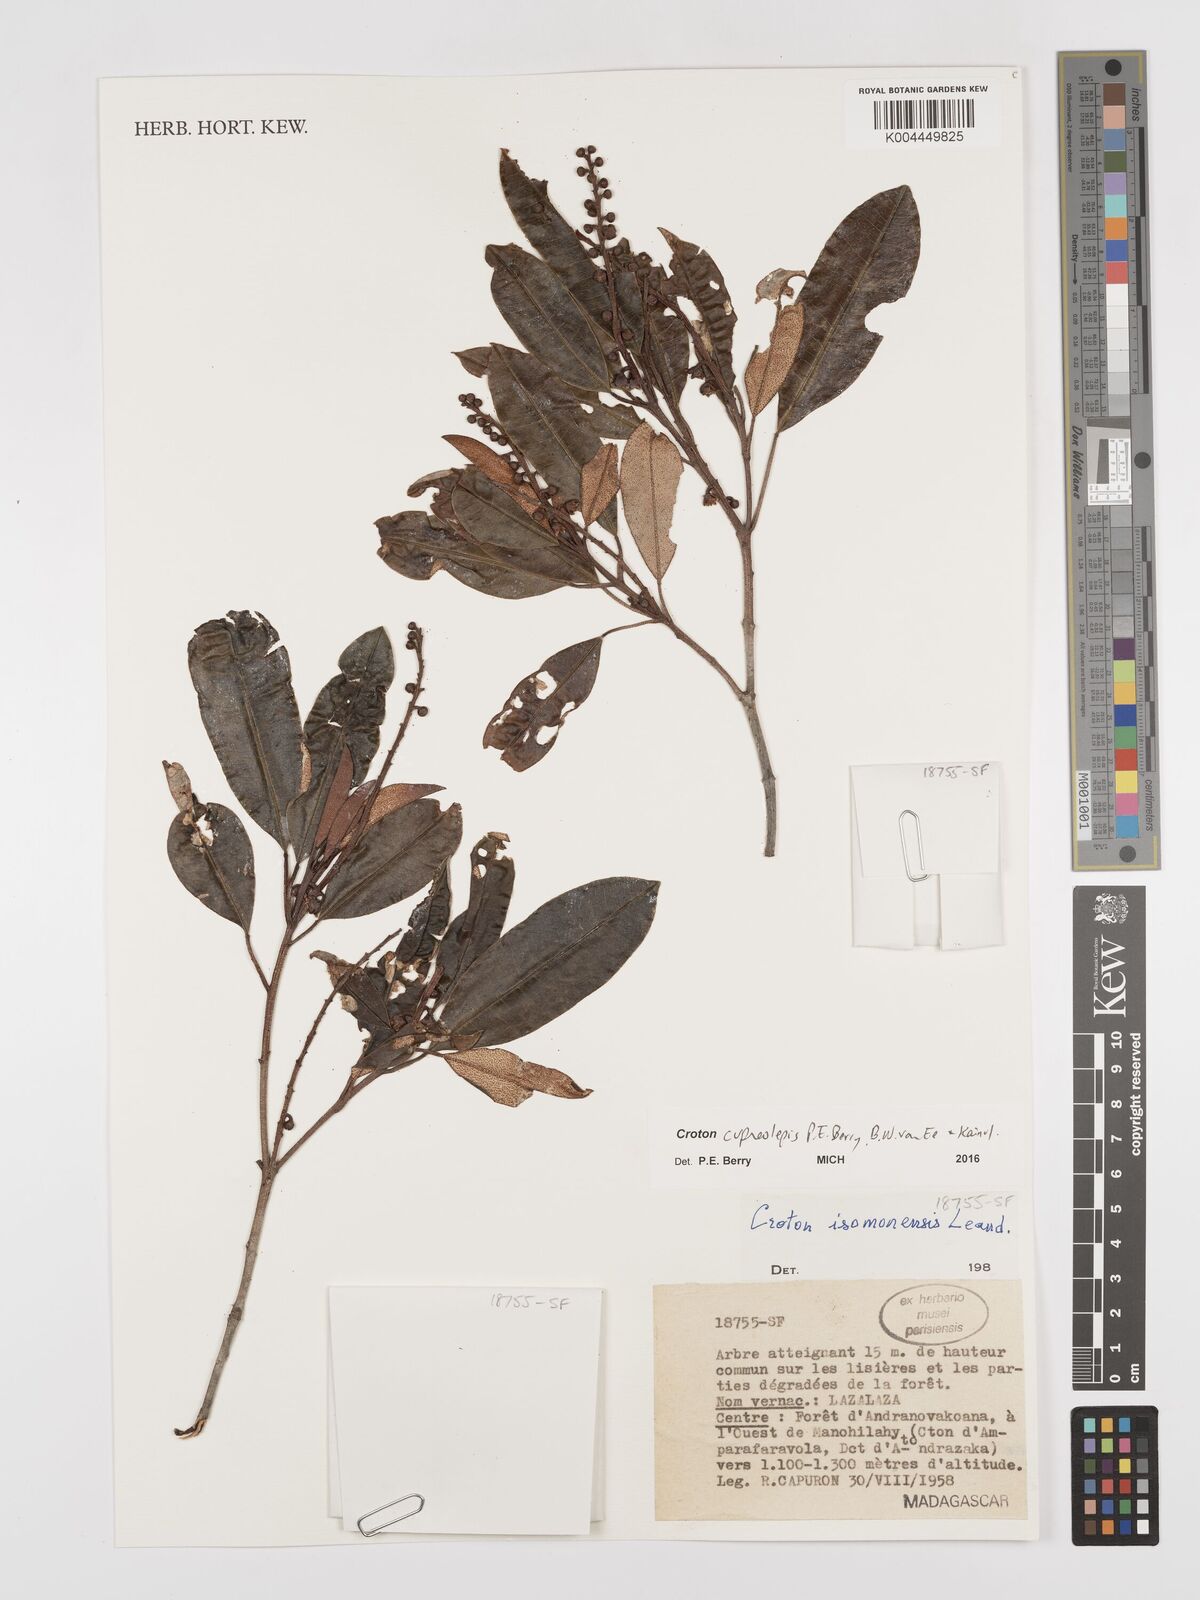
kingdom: Plantae
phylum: Tracheophyta
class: Magnoliopsida
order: Malpighiales
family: Euphorbiaceae
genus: Croton
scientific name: Croton cupreolepis
